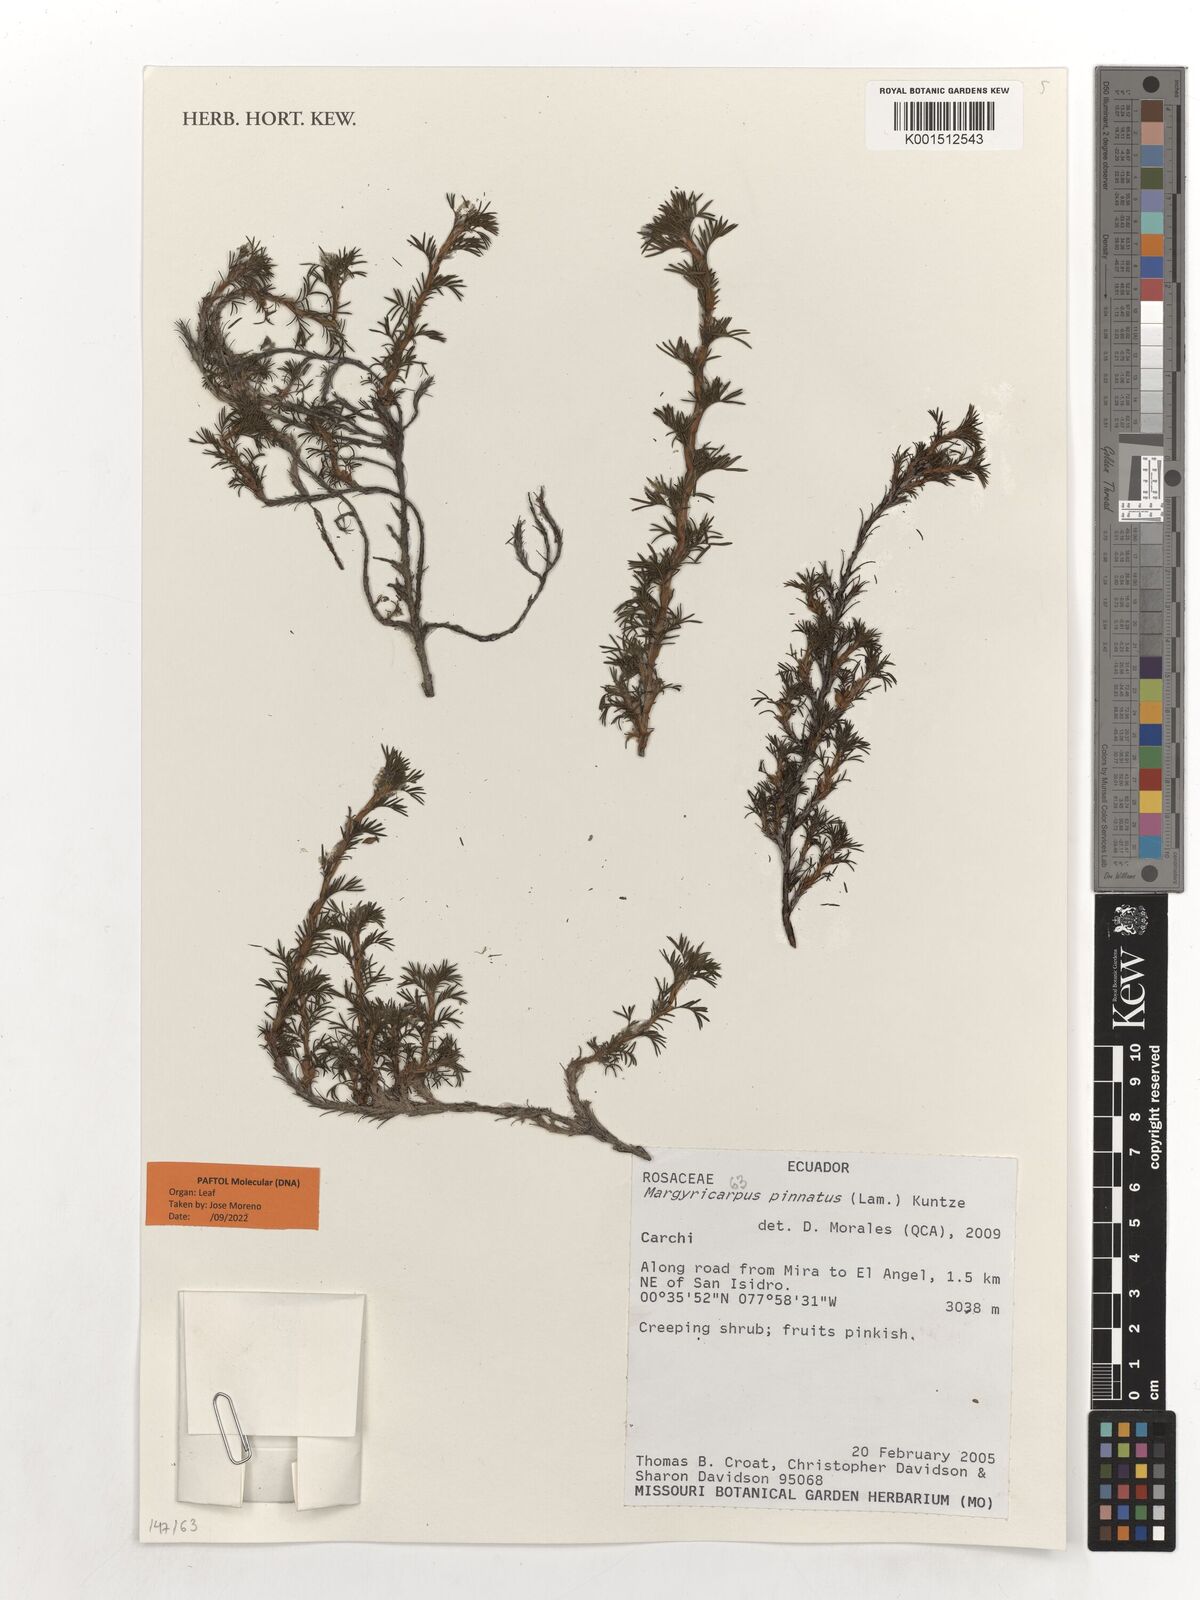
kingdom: Plantae
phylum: Tracheophyta
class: Magnoliopsida
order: Rosales
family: Rosaceae
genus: Margyricarpus
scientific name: Margyricarpus pinnatus
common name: Pearlfruit
